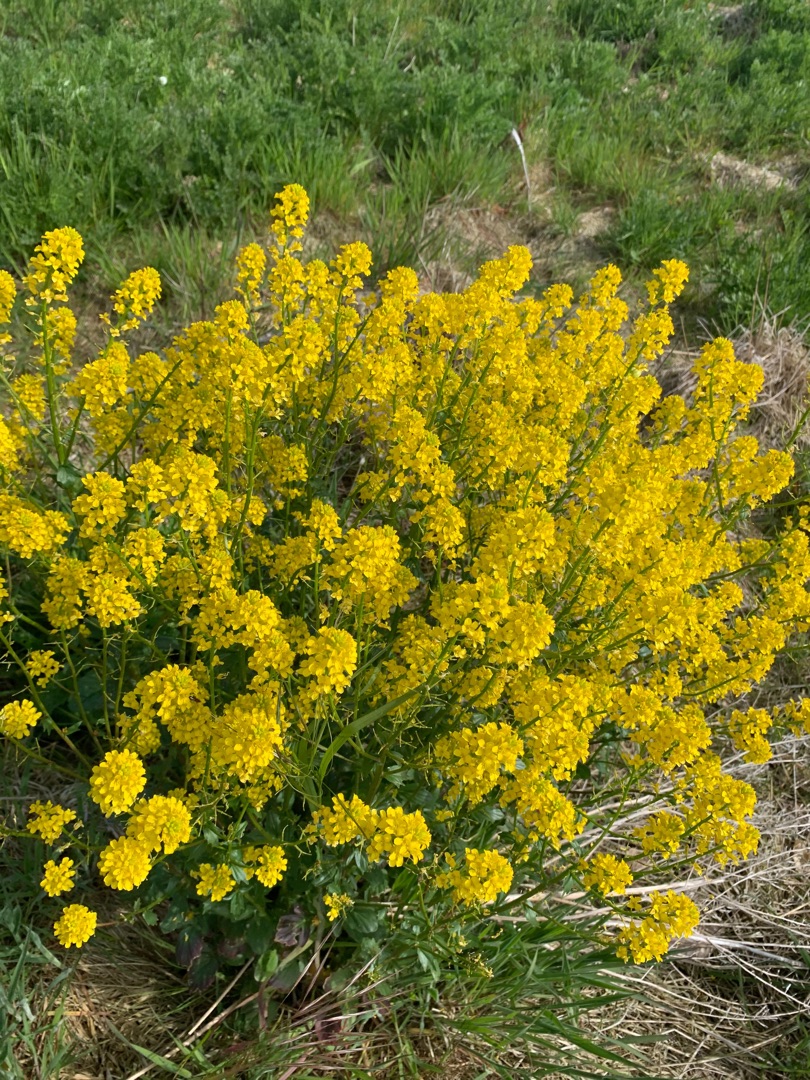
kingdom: Plantae
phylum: Tracheophyta
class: Magnoliopsida
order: Brassicales
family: Brassicaceae
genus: Barbarea
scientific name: Barbarea vulgaris
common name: Almindelig vinterkarse
